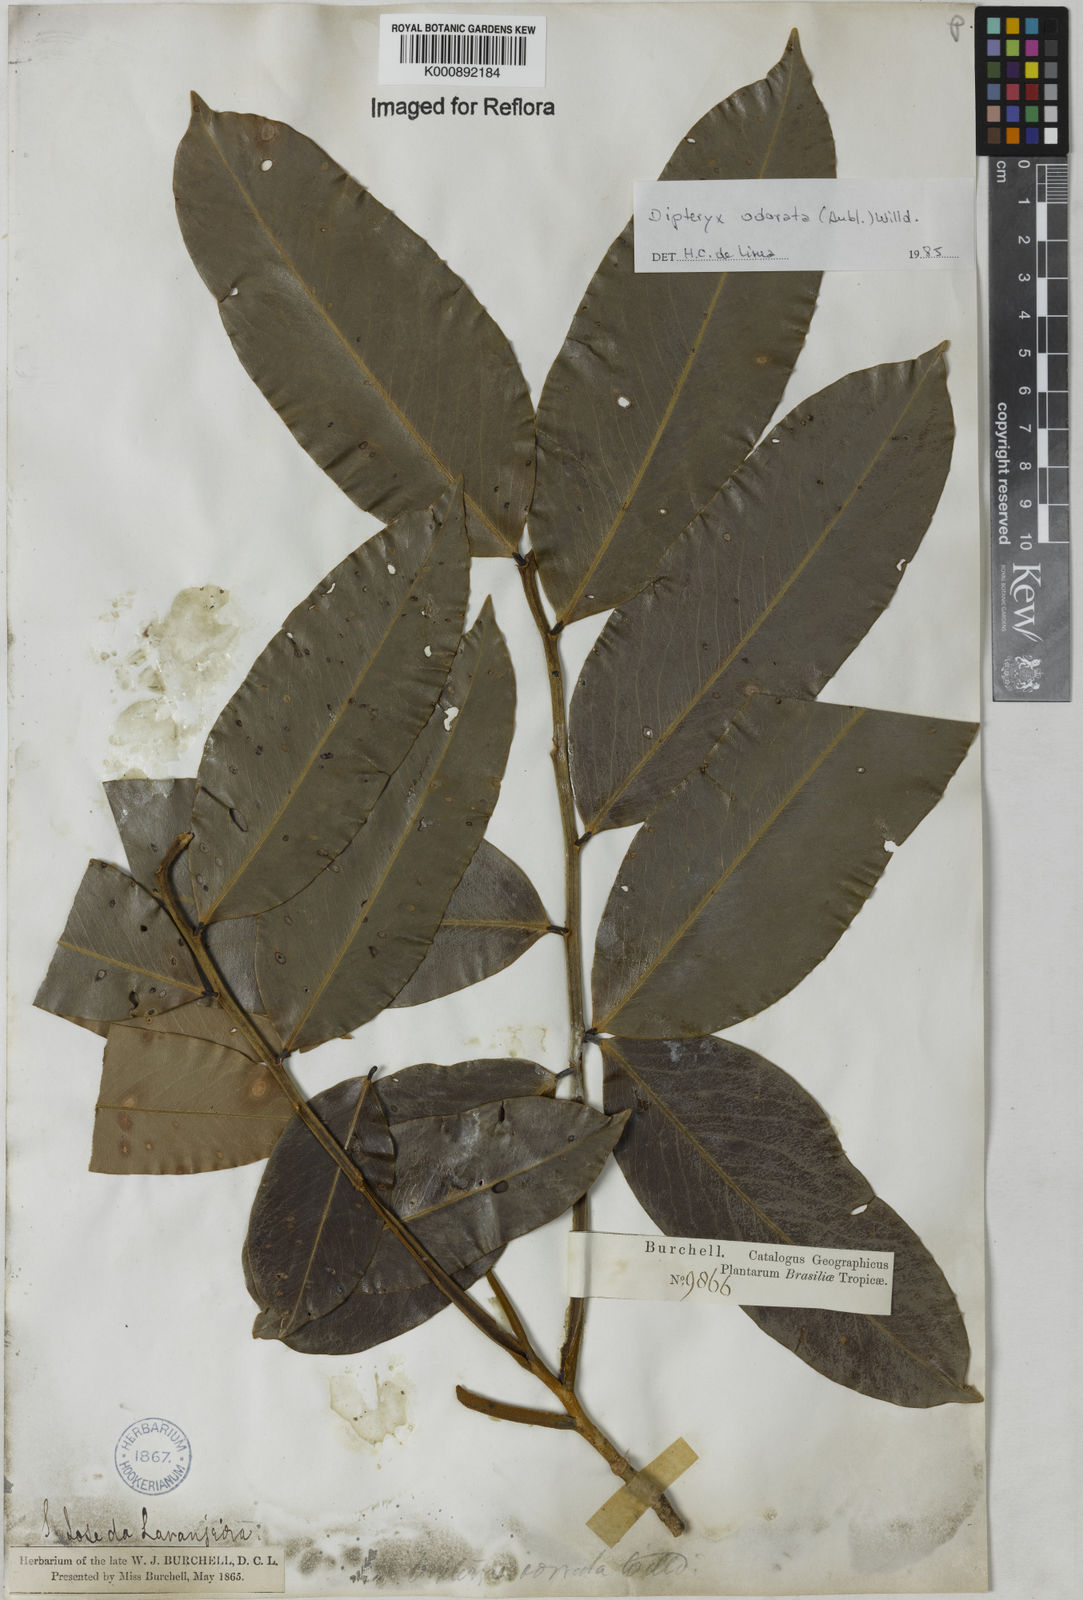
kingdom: Plantae
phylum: Tracheophyta
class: Magnoliopsida
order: Fabales
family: Fabaceae
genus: Dipteryx
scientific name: Dipteryx
